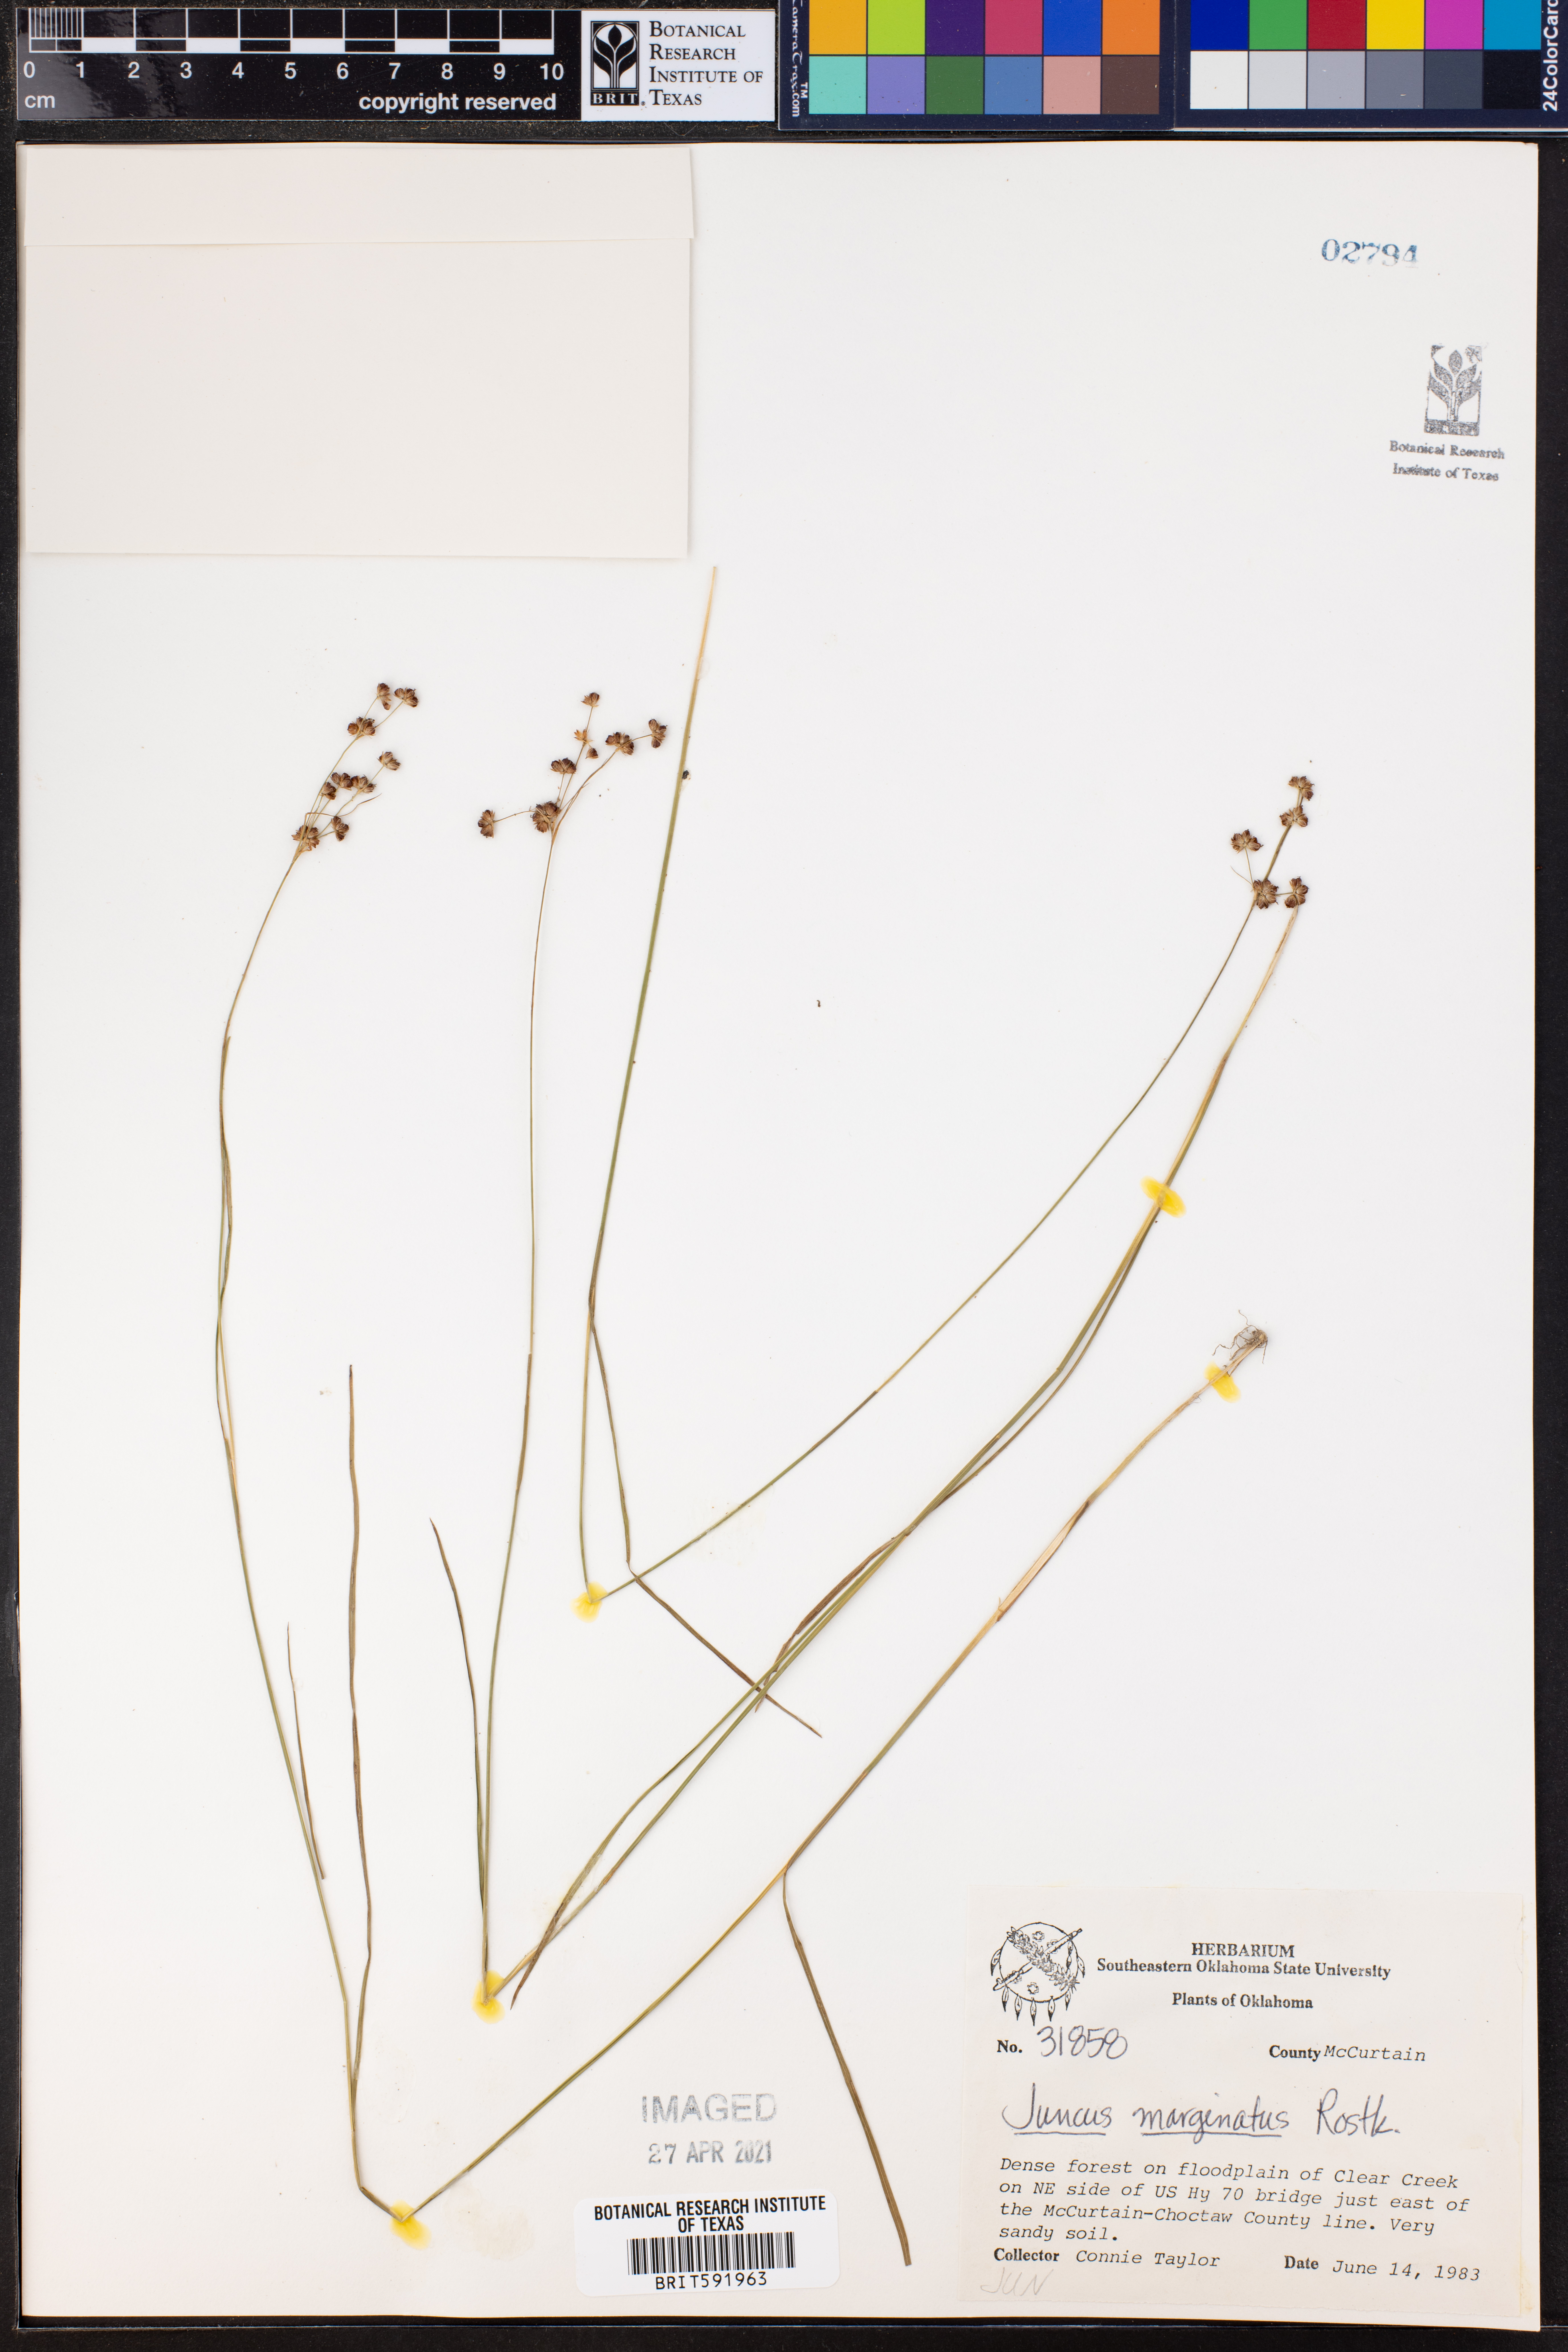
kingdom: Plantae
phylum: Tracheophyta
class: Liliopsida
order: Poales
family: Juncaceae
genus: Juncus
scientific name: Juncus marginatus
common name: Grass-leaf rush
